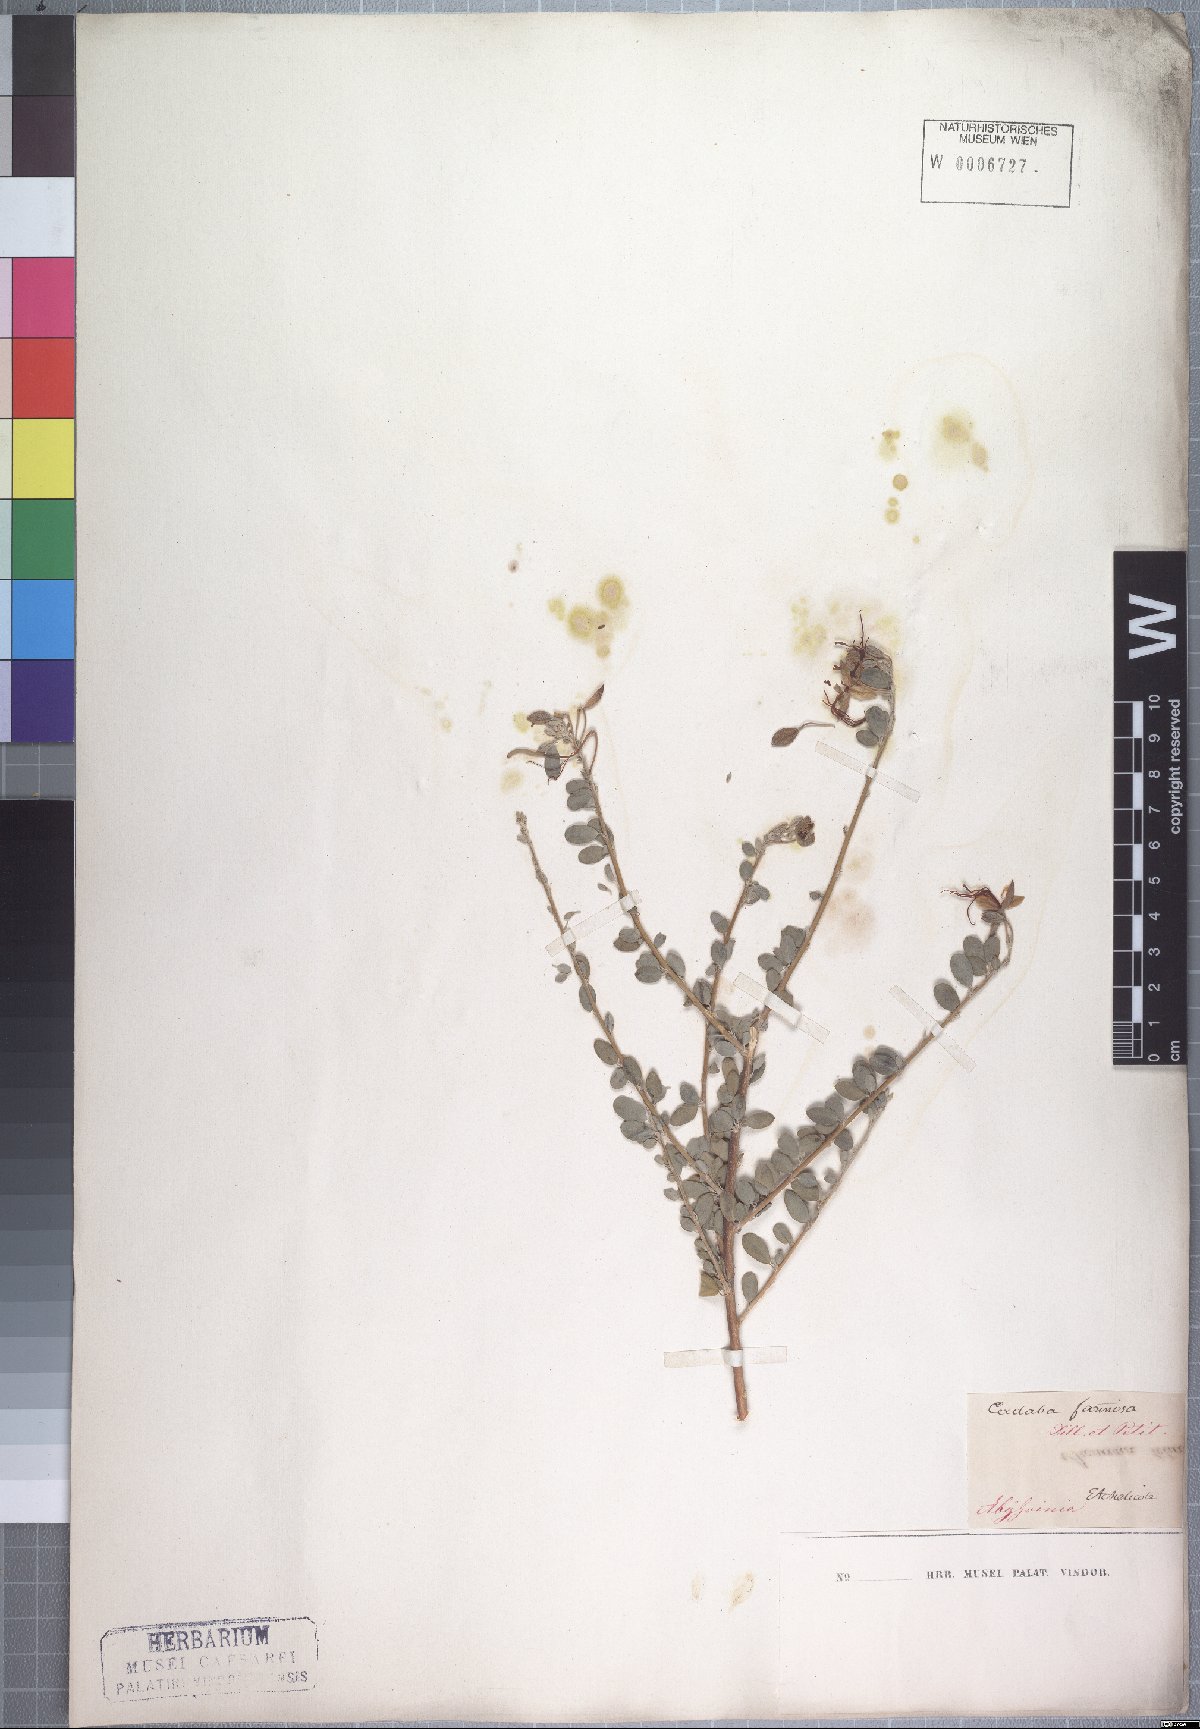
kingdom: Plantae
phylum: Tracheophyta
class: Magnoliopsida
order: Brassicales
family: Capparaceae
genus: Cadaba
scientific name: Cadaba farinosa
